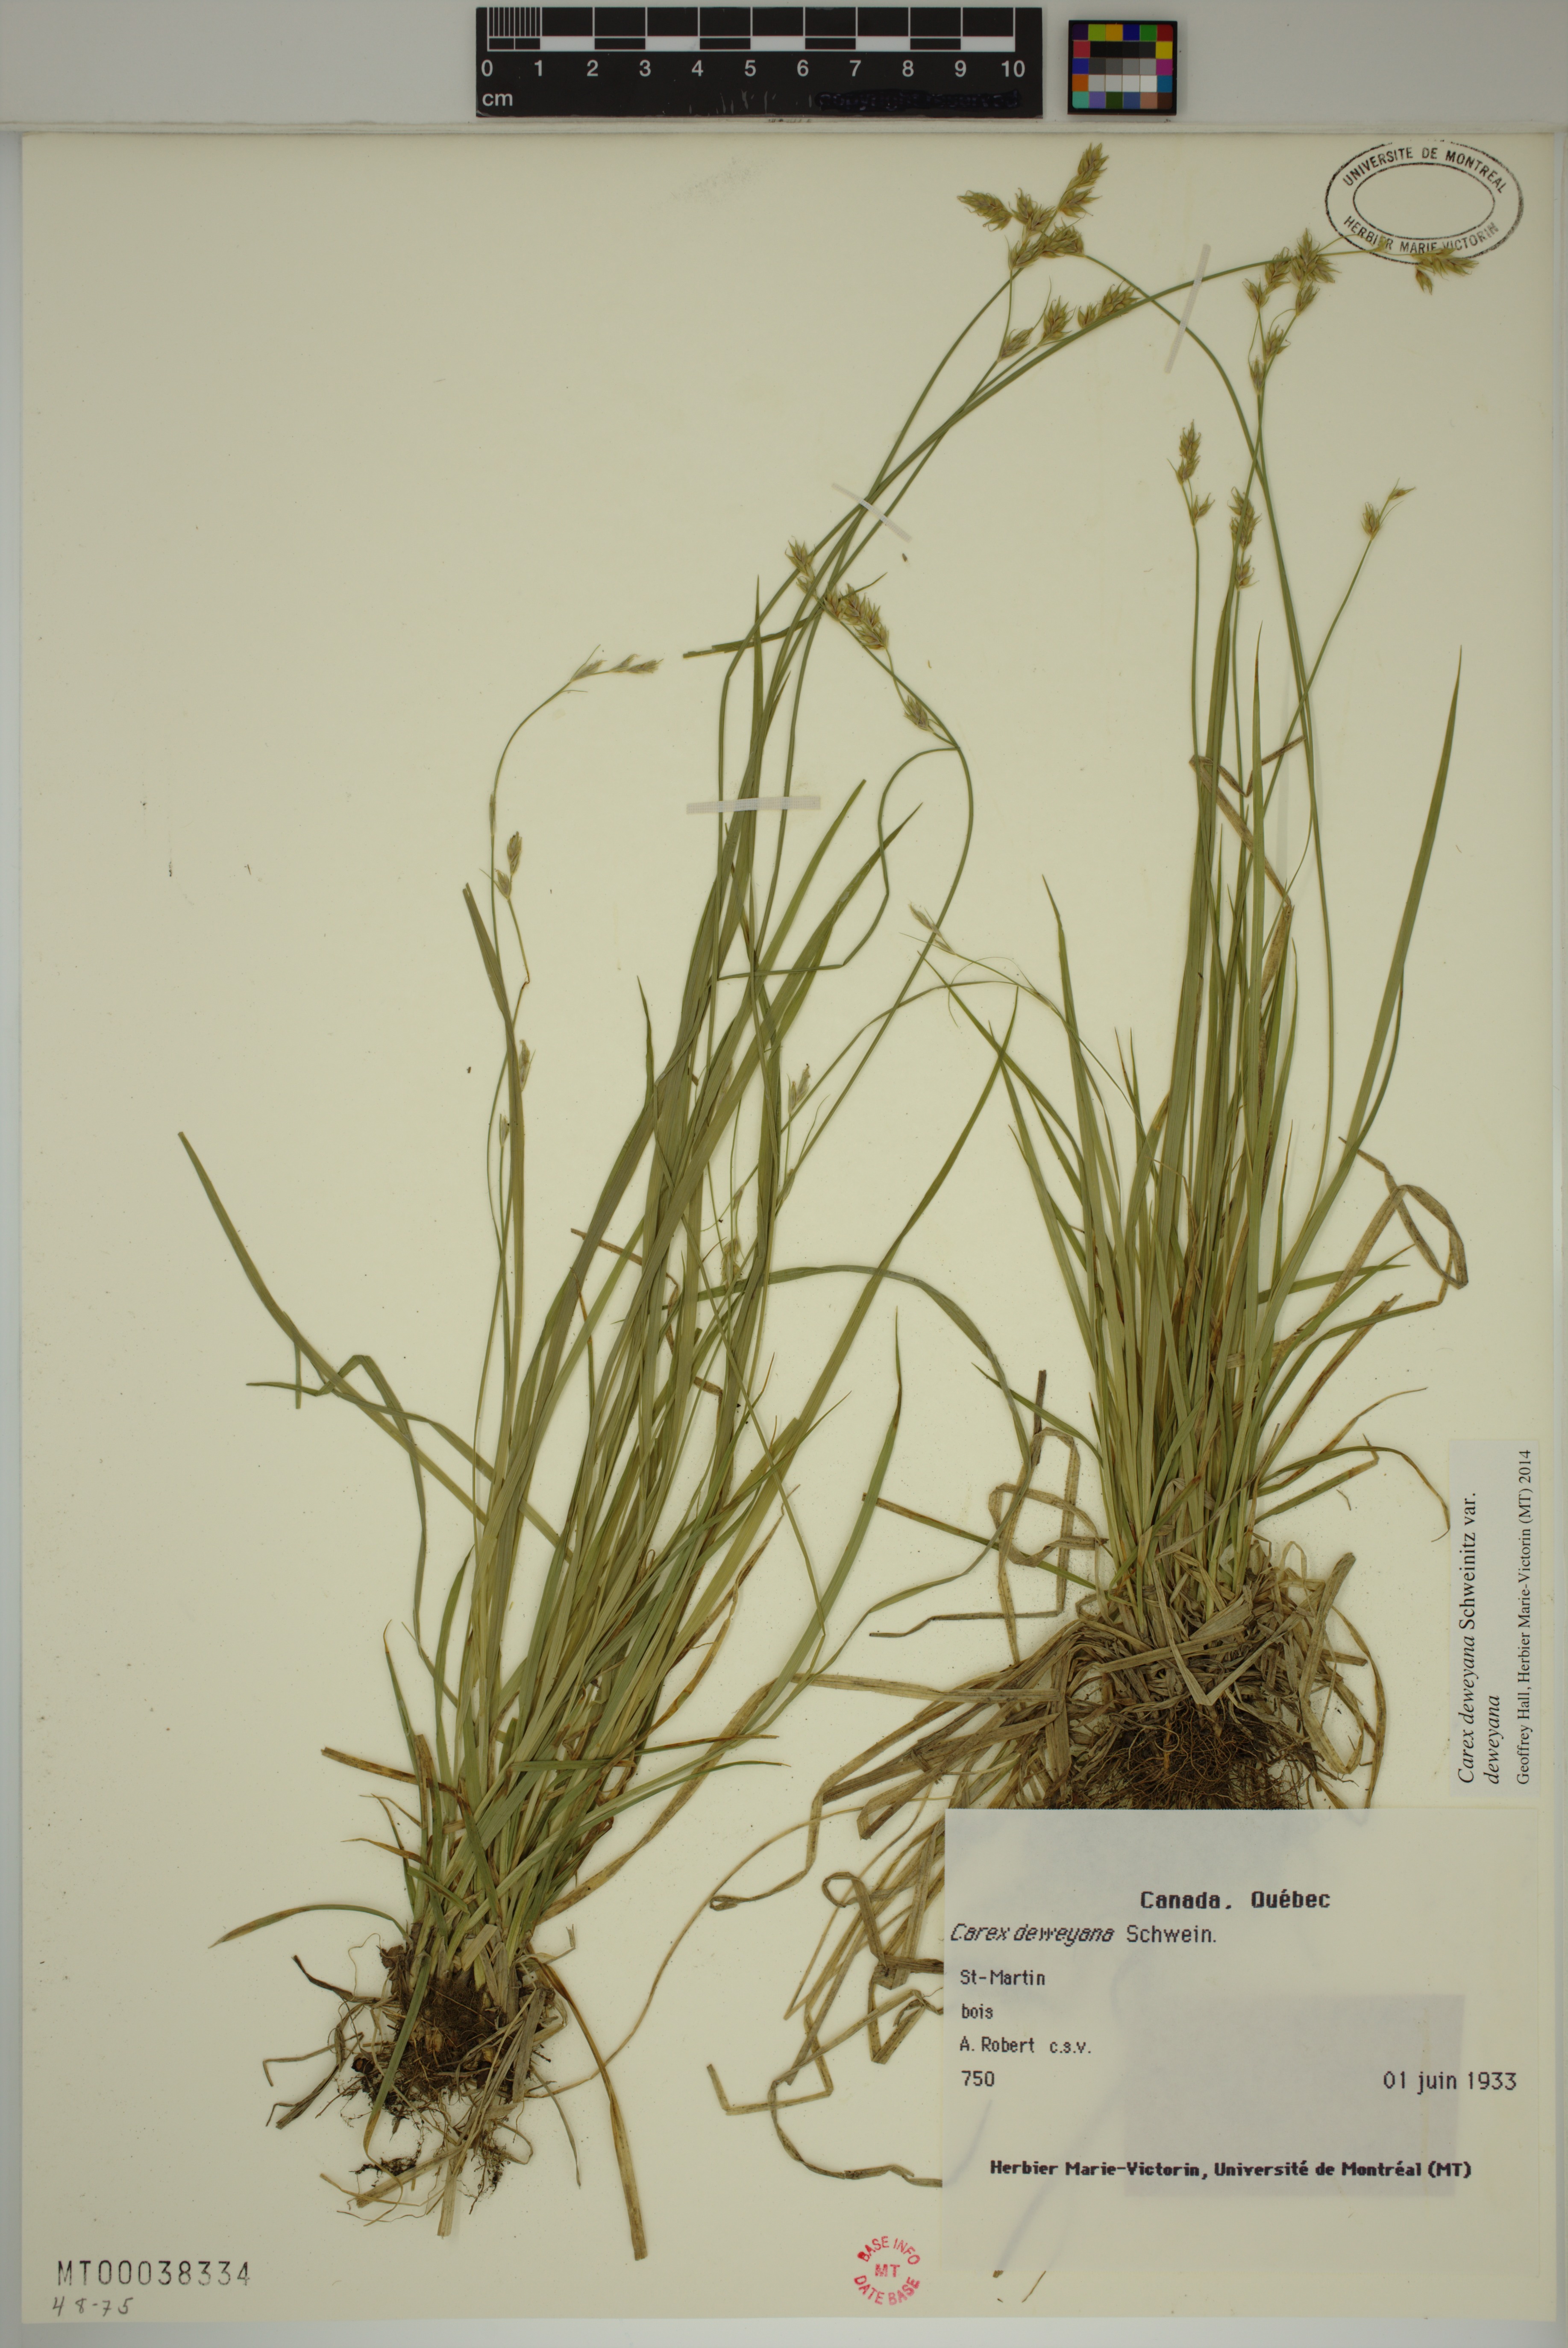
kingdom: Plantae
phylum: Tracheophyta
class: Liliopsida
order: Poales
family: Cyperaceae
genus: Carex
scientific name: Carex deweyana
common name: Dewey's sedge
